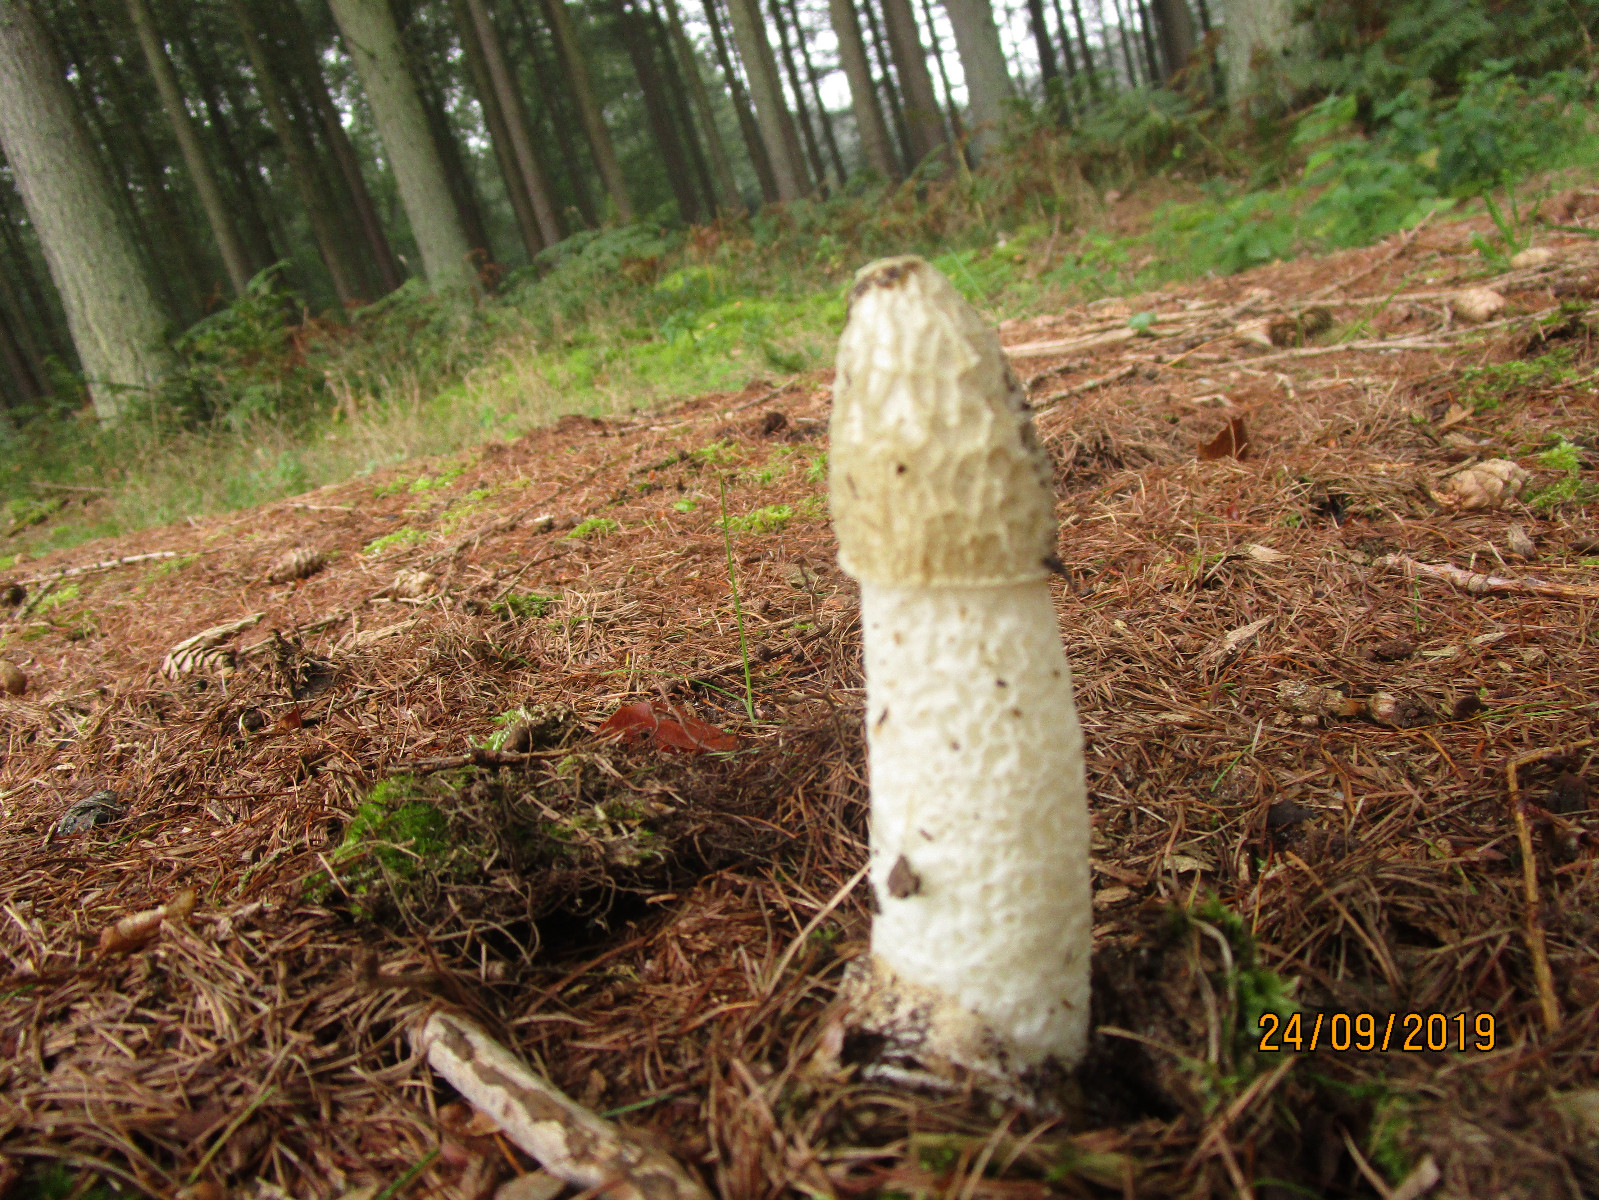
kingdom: Fungi
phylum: Basidiomycota
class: Agaricomycetes
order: Phallales
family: Phallaceae
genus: Phallus
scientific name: Phallus impudicus
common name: almindelig stinksvamp
